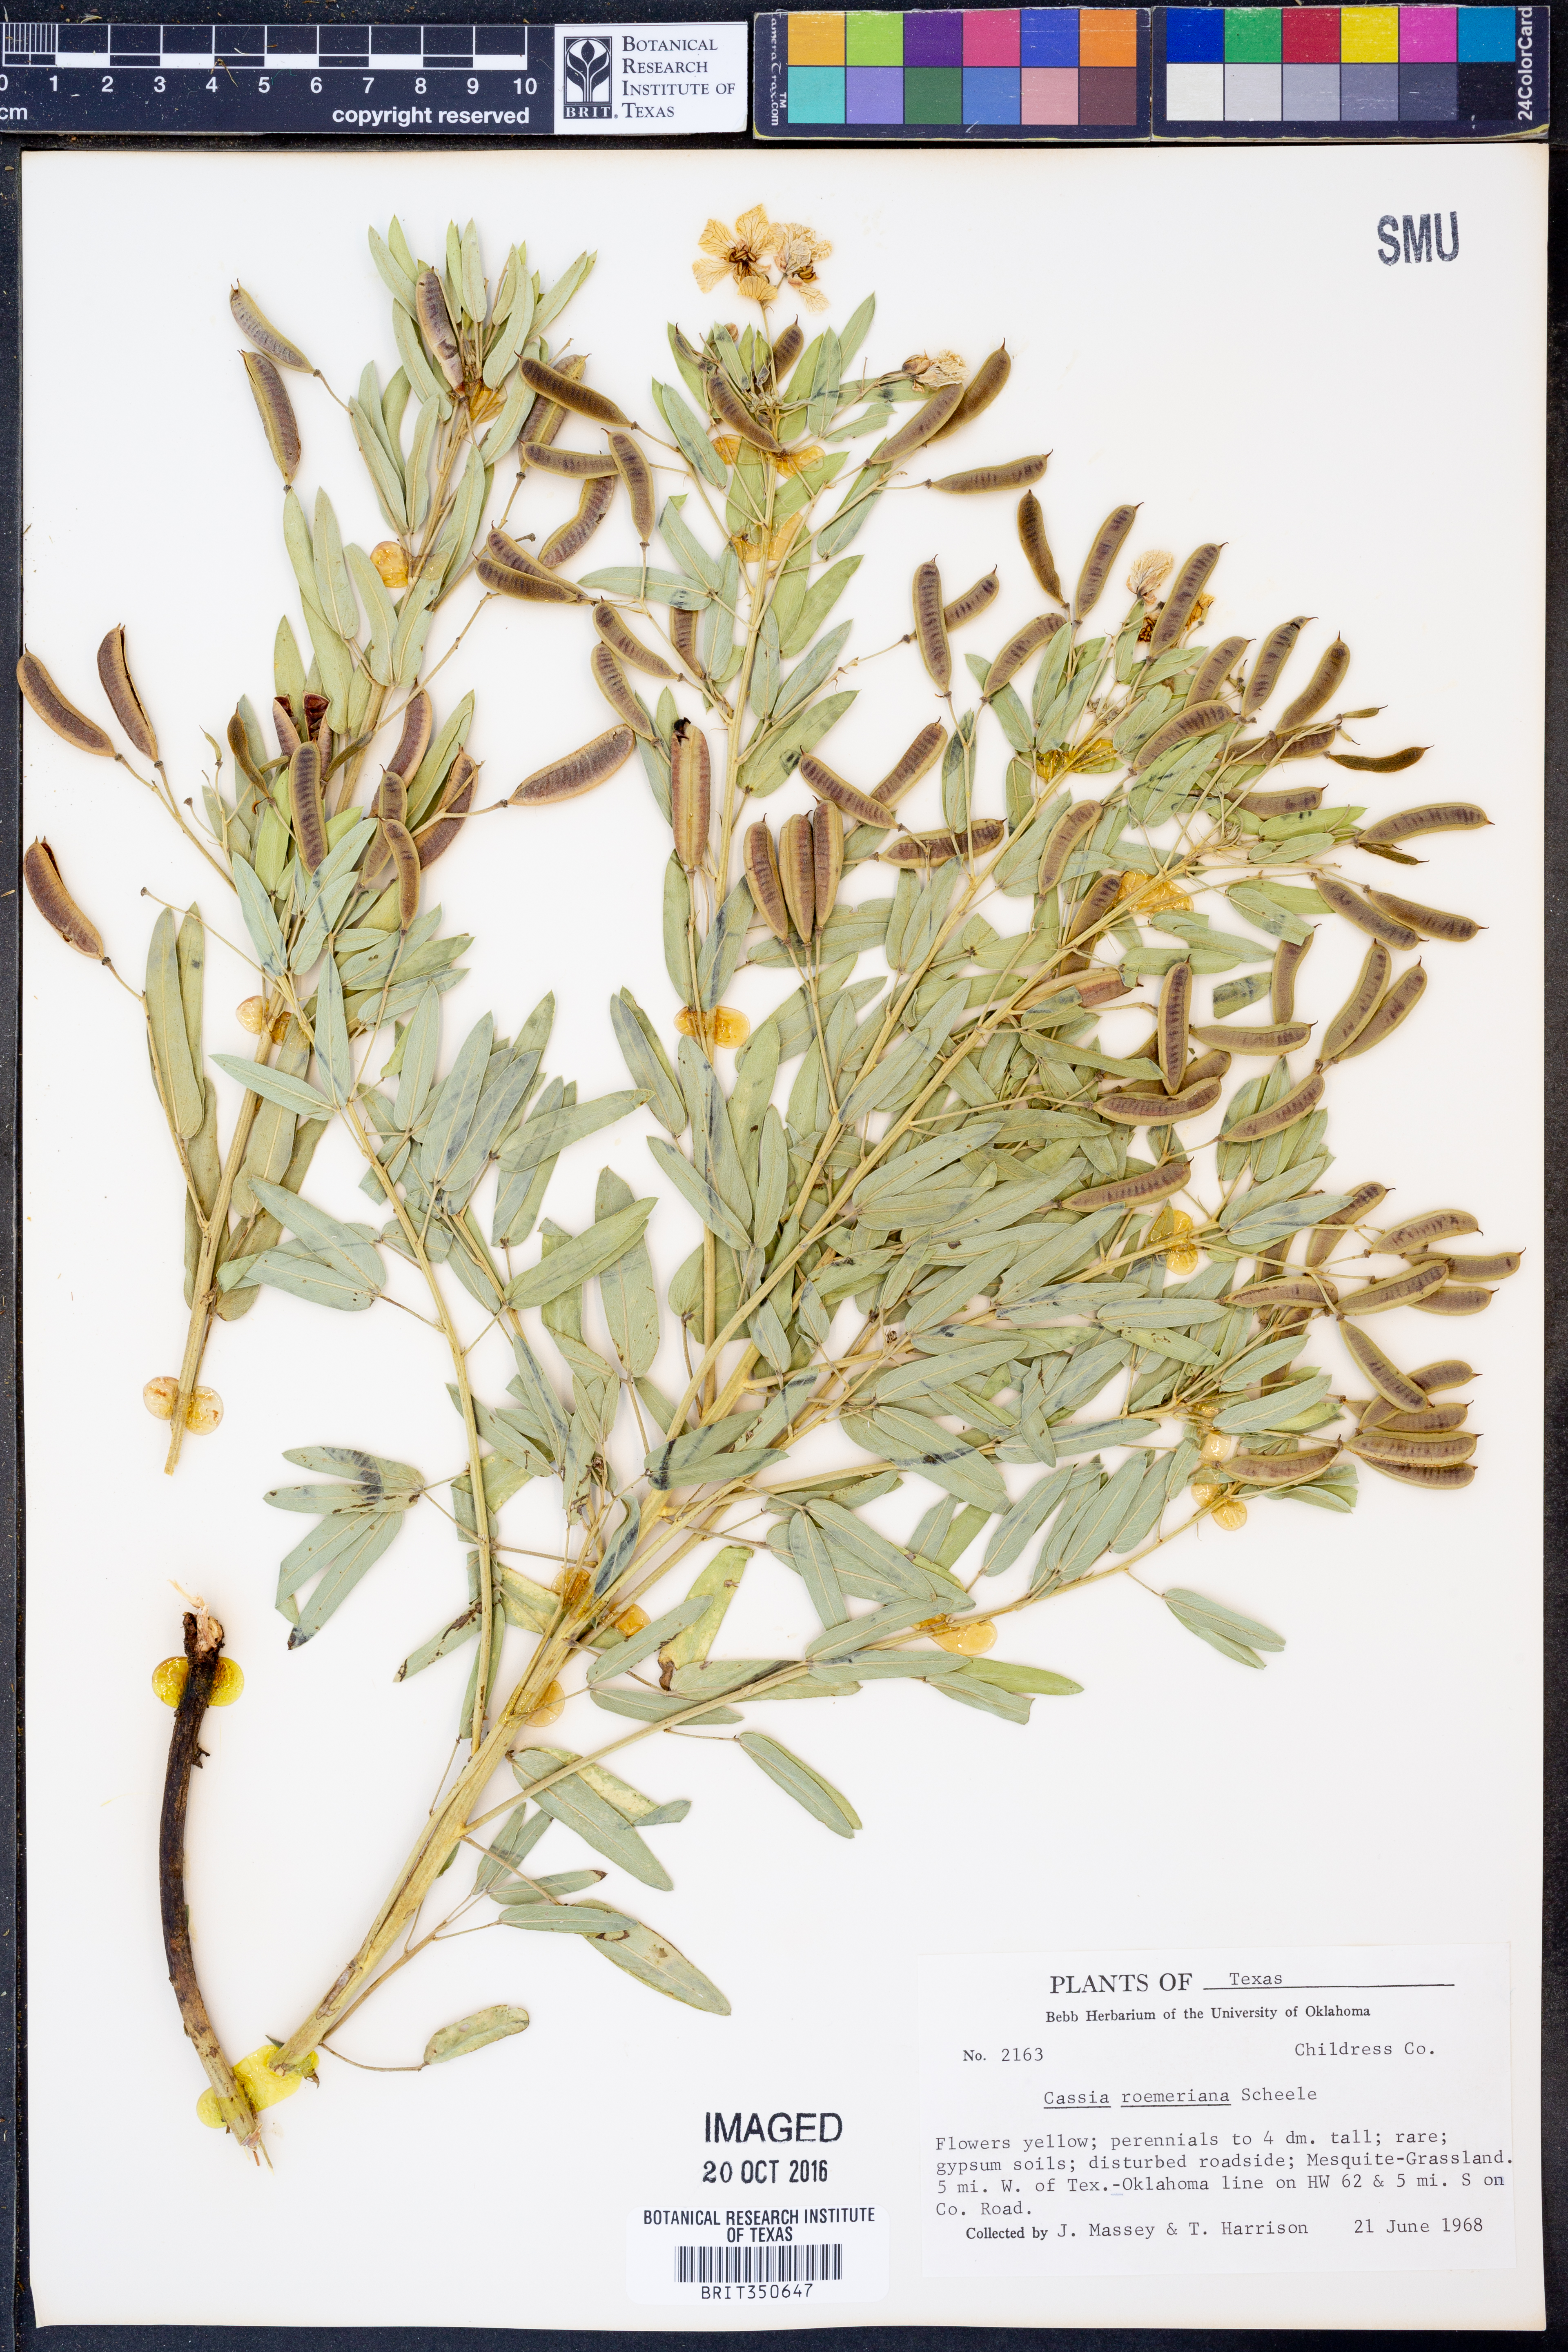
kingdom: Plantae
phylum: Tracheophyta
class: Magnoliopsida
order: Fabales
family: Fabaceae
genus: Senna
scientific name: Senna roemeriana
